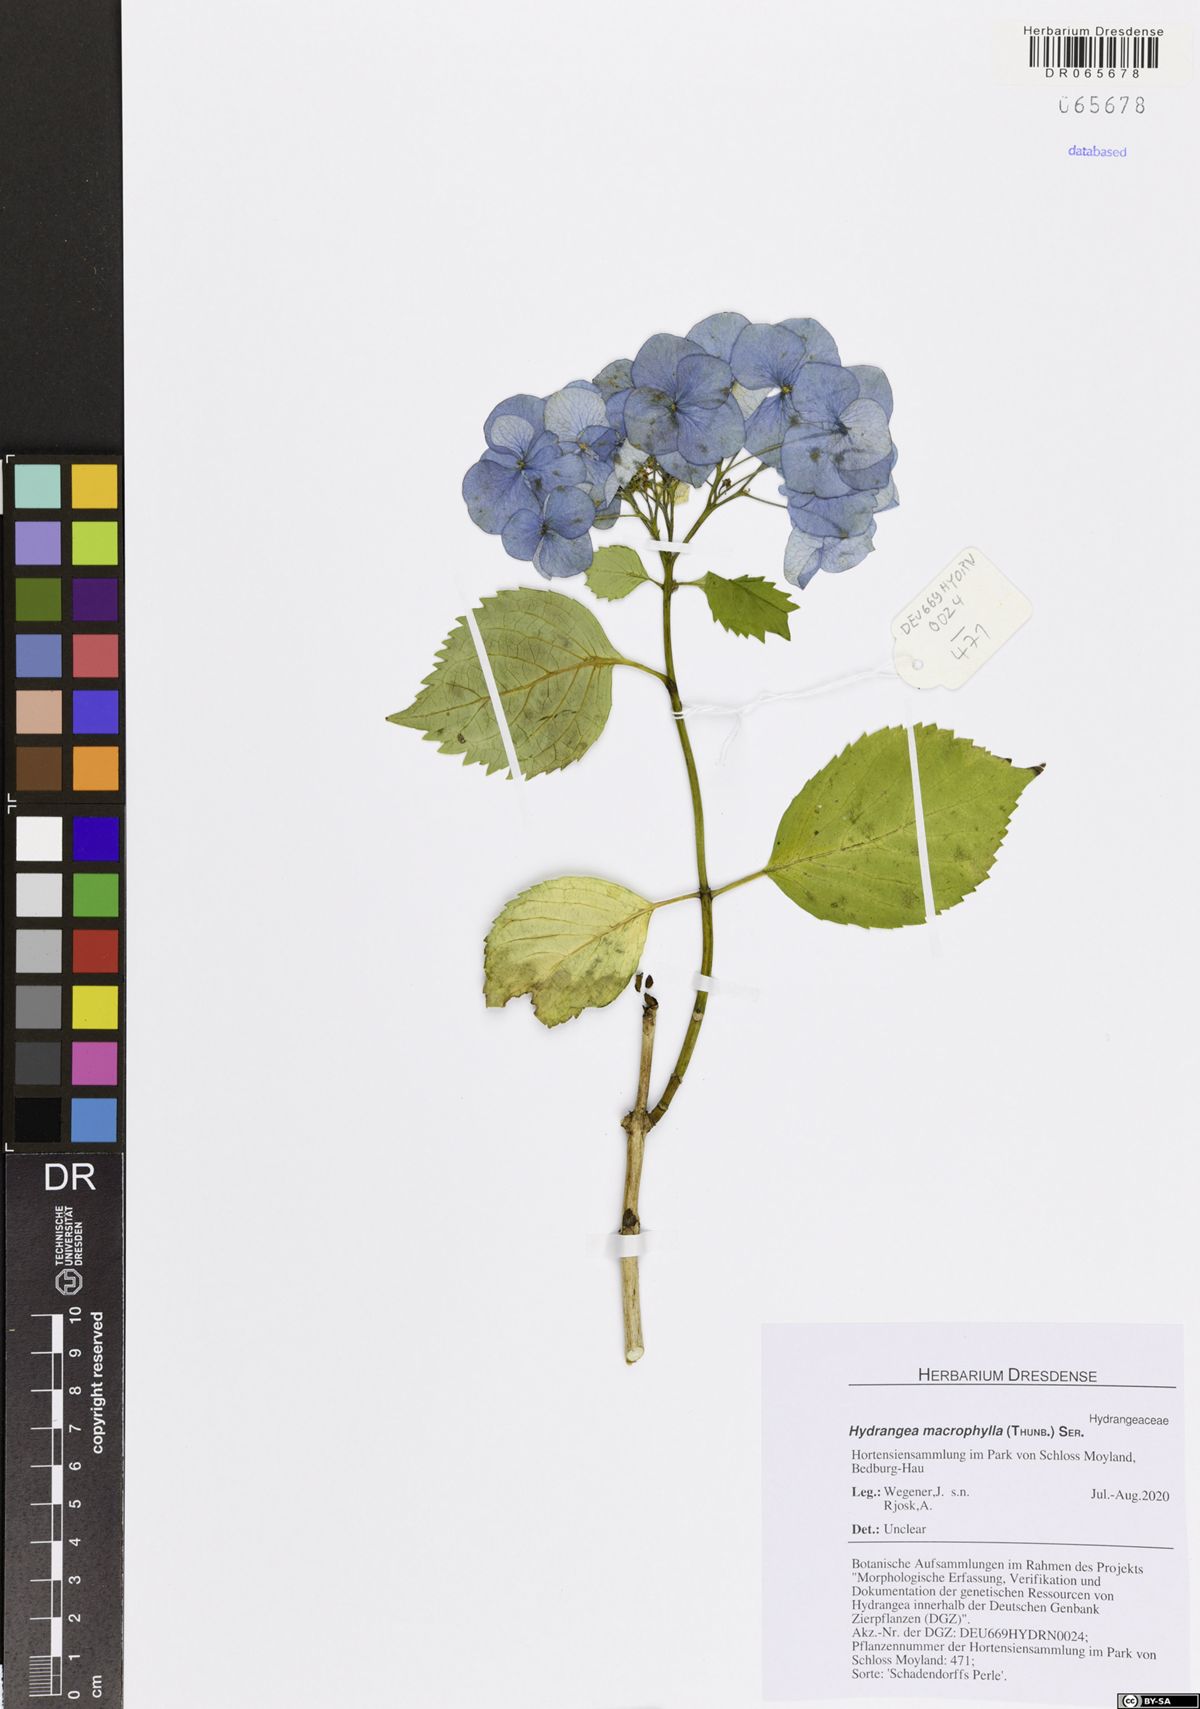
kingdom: Plantae
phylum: Tracheophyta
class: Magnoliopsida
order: Cornales
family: Hydrangeaceae
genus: Hydrangea
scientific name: Hydrangea macrophylla
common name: Hydrangea
